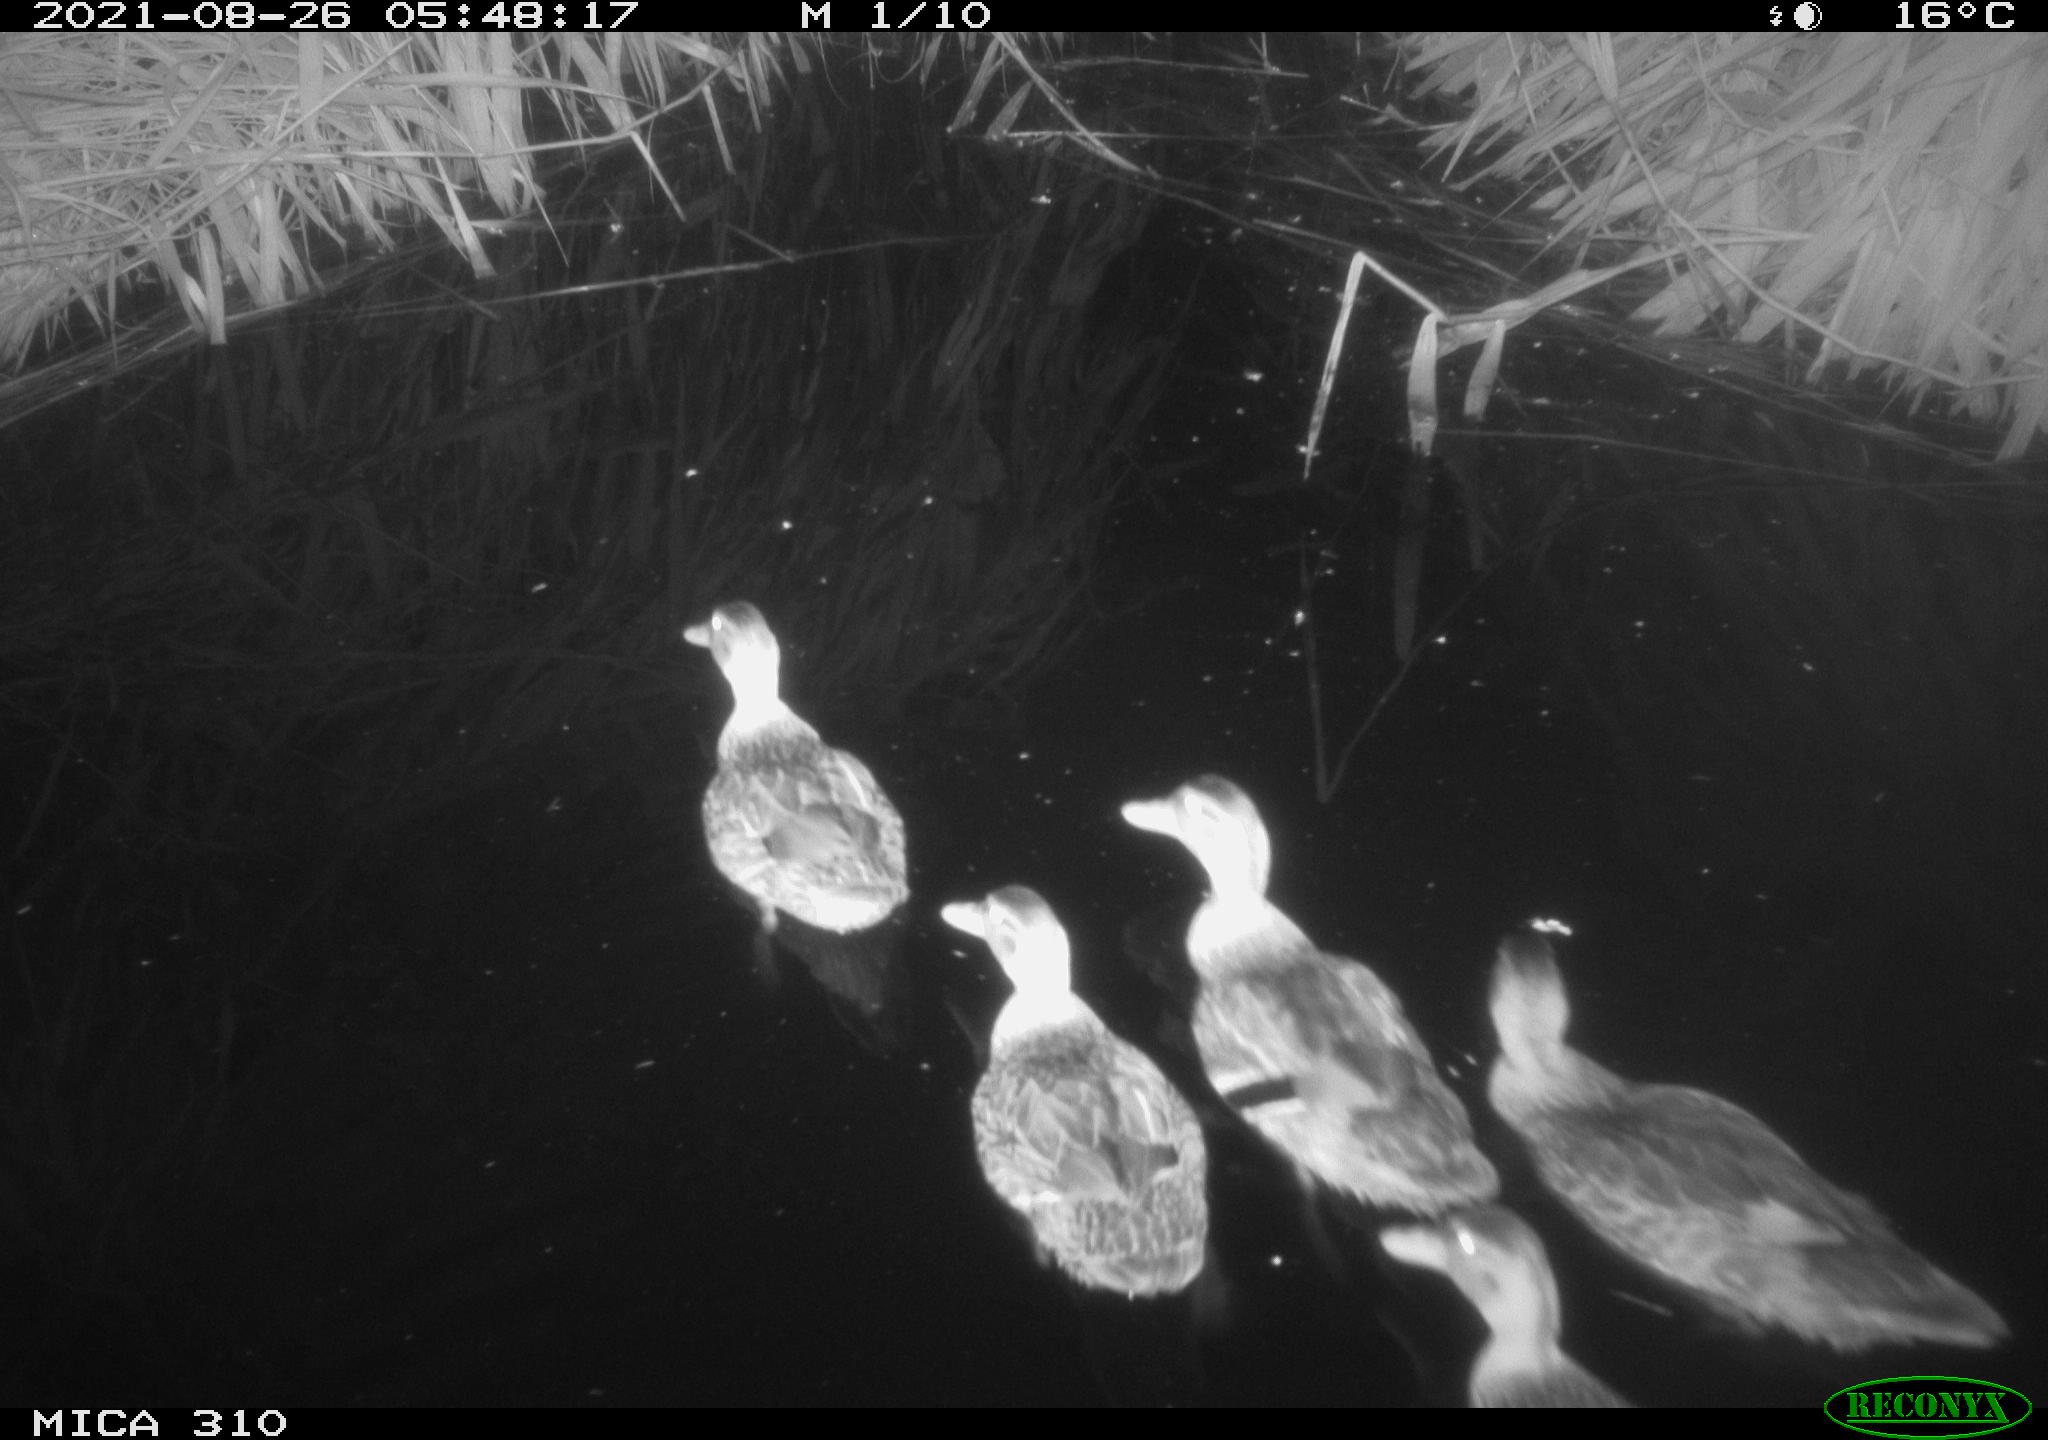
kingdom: Animalia
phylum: Chordata
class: Aves
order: Anseriformes
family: Anatidae
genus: Anas
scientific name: Anas platyrhynchos
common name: Mallard
